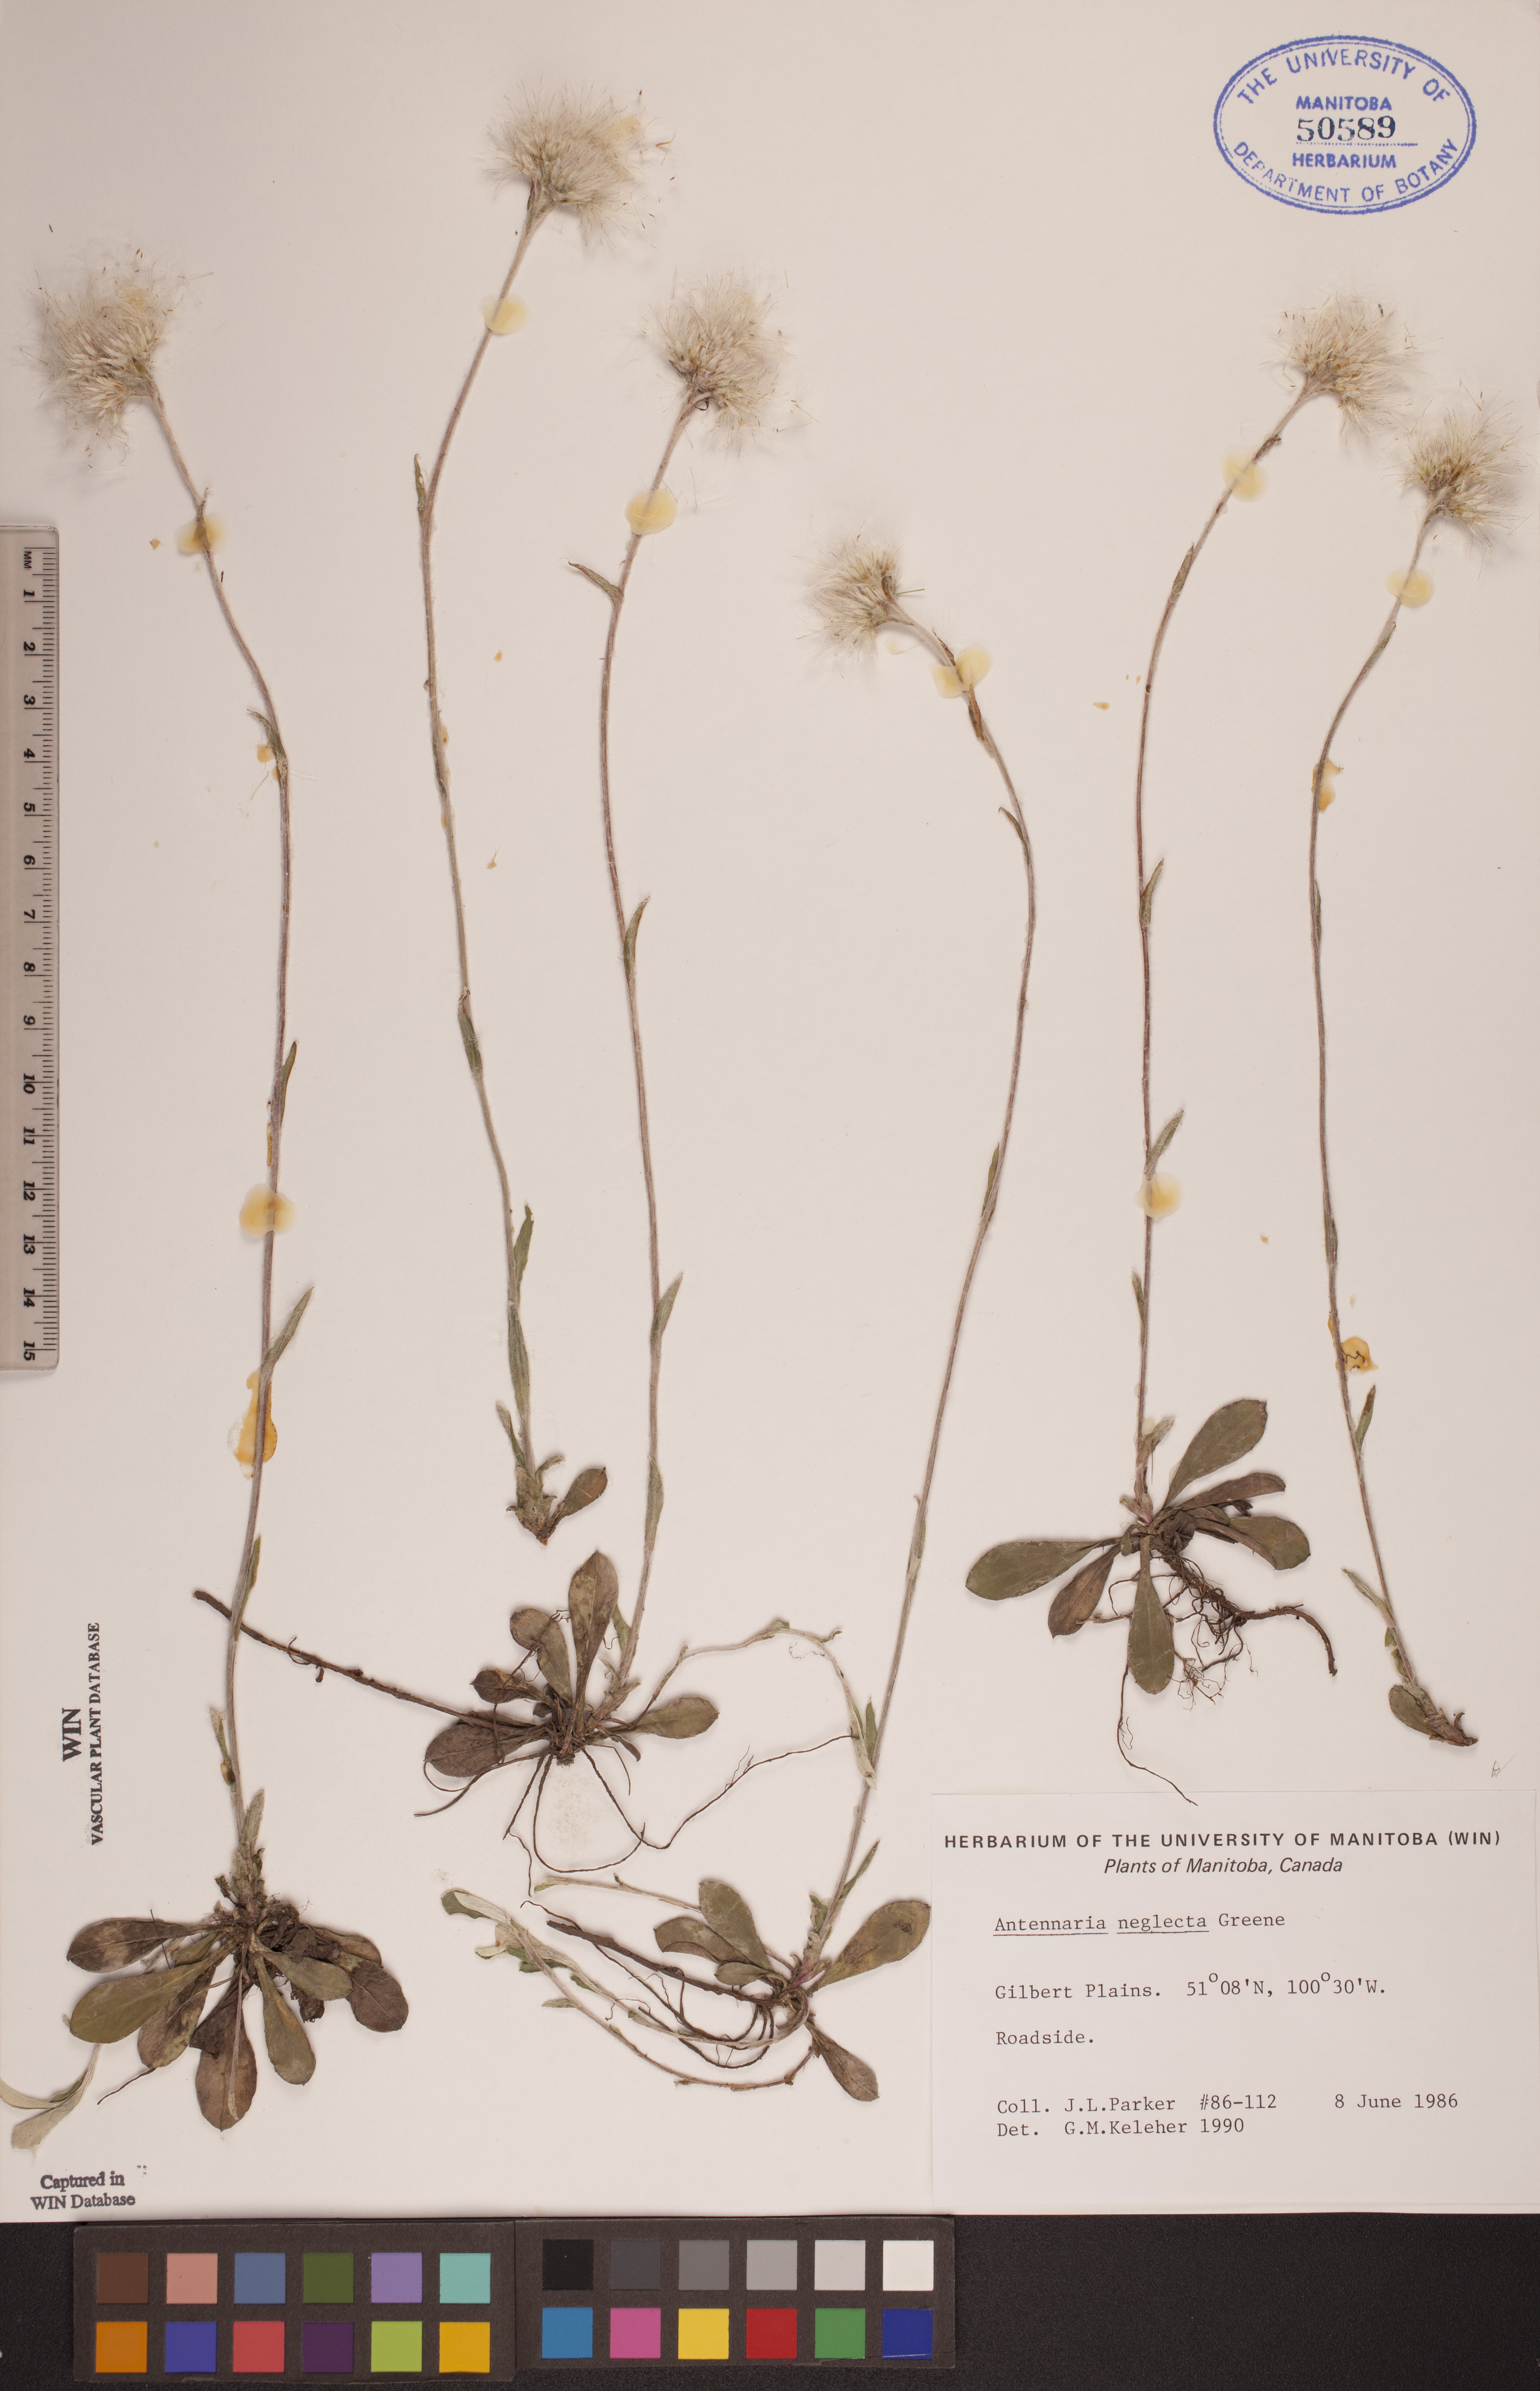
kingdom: Plantae
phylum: Tracheophyta
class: Magnoliopsida
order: Asterales
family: Asteraceae
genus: Antennaria
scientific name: Antennaria neglecta
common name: Field pussytoes
